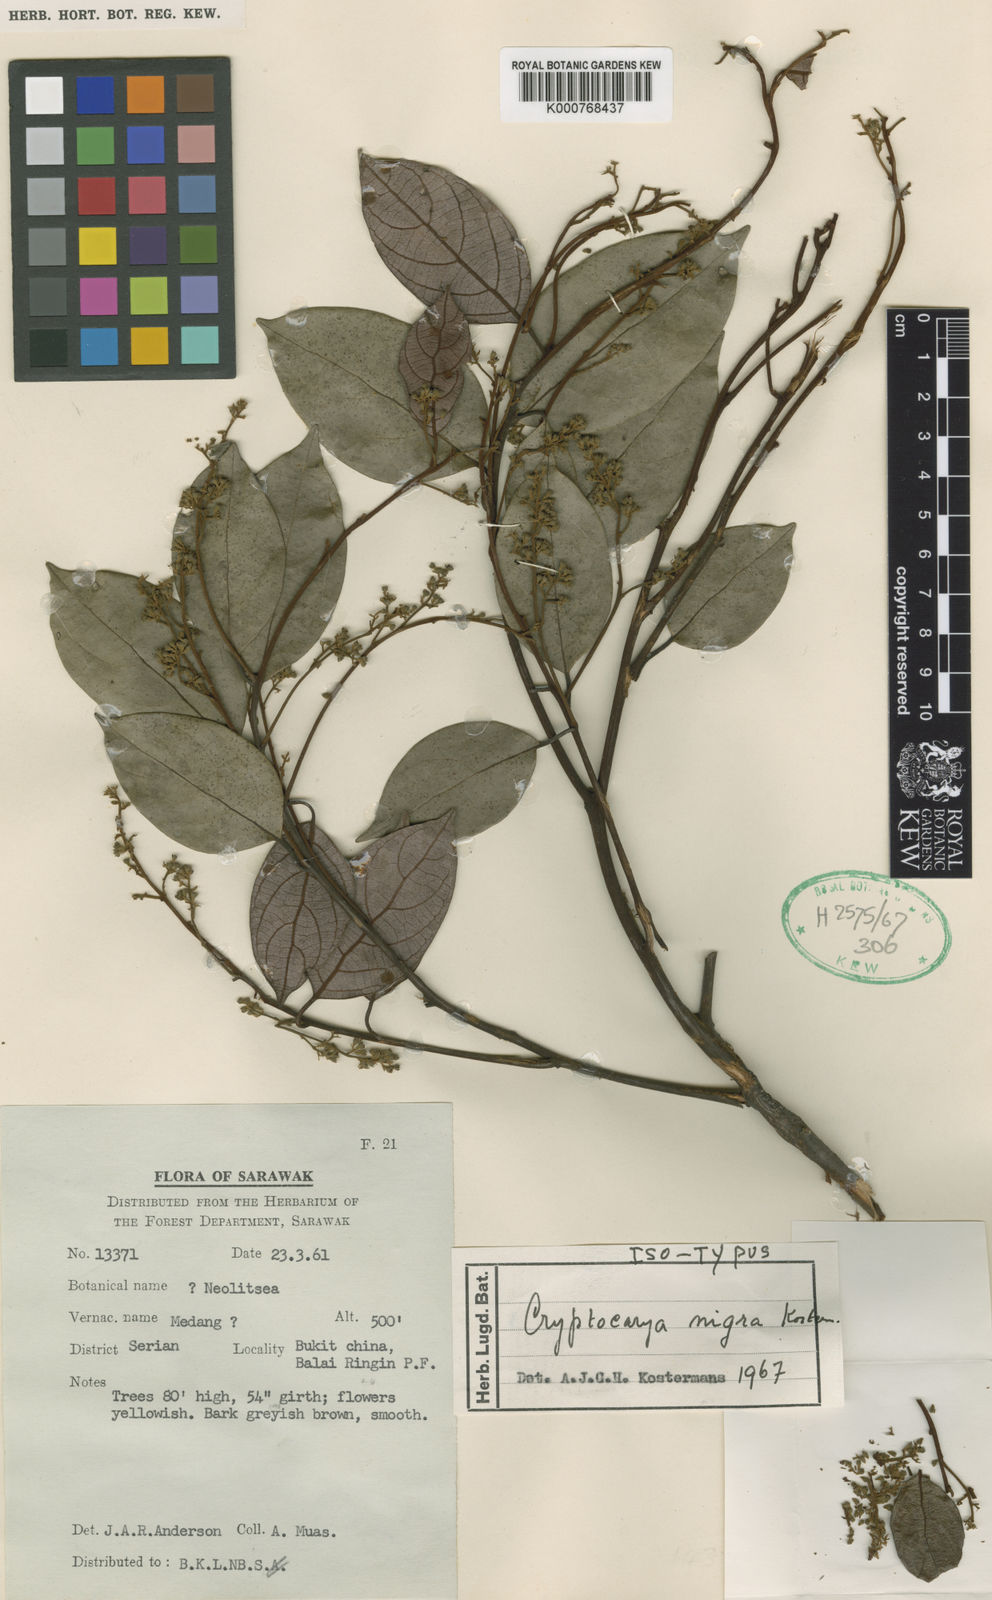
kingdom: Plantae
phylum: Tracheophyta
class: Magnoliopsida
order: Laurales
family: Lauraceae
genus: Cryptocarya
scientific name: Cryptocarya nigra
